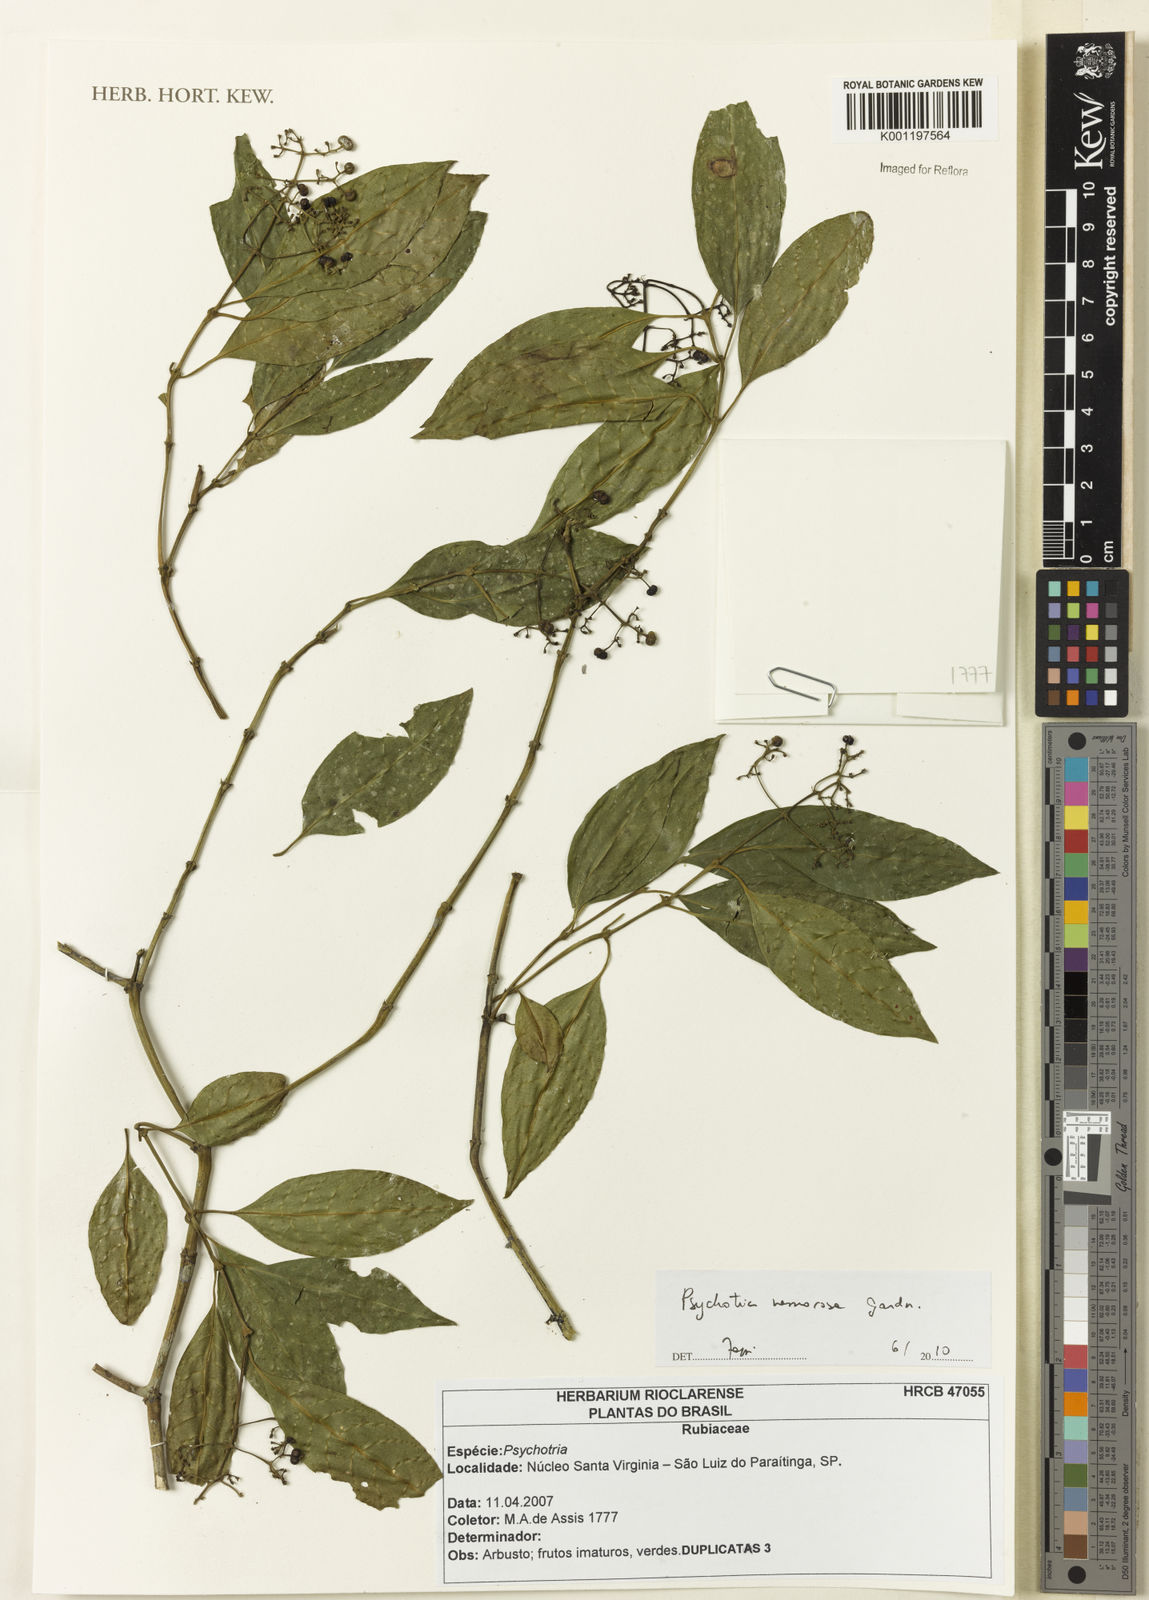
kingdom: Plantae
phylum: Tracheophyta
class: Magnoliopsida
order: Gentianales
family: Rubiaceae
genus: Psychotria
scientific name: Psychotria nemorosa
